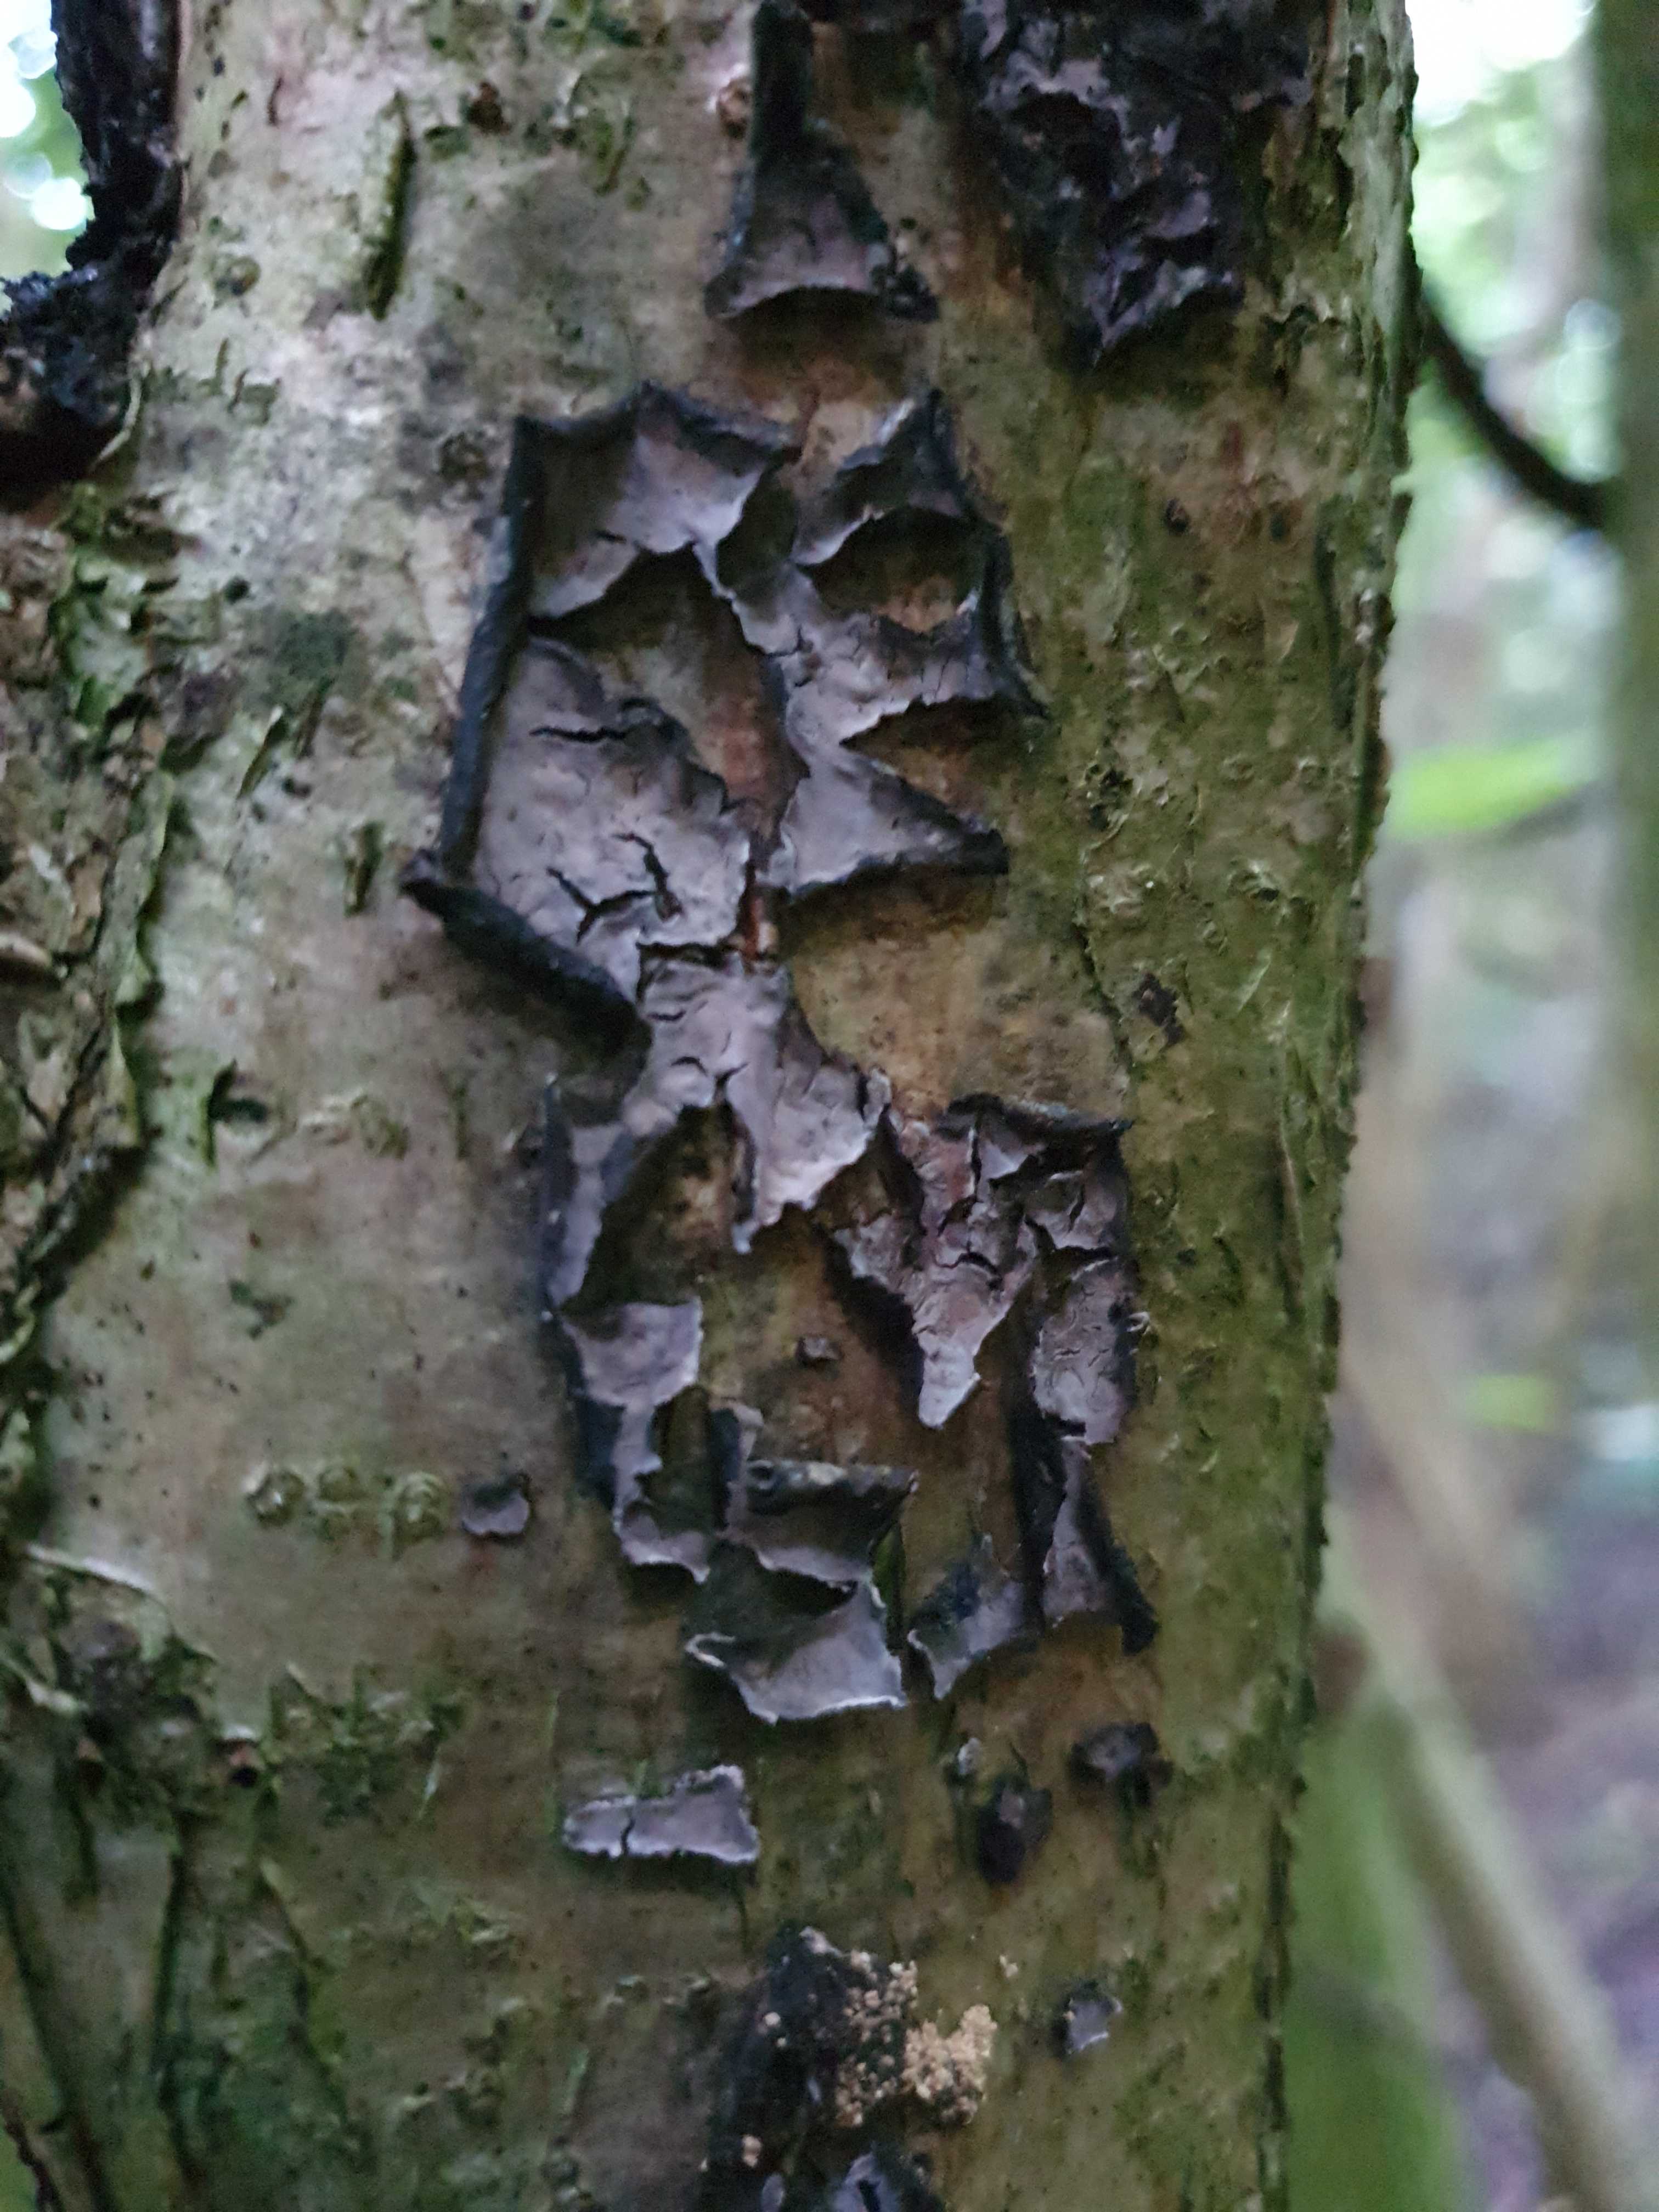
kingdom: Fungi
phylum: Basidiomycota
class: Agaricomycetes
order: Russulales
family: Peniophoraceae
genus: Peniophora
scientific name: Peniophora quercina
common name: ege-voksskind
